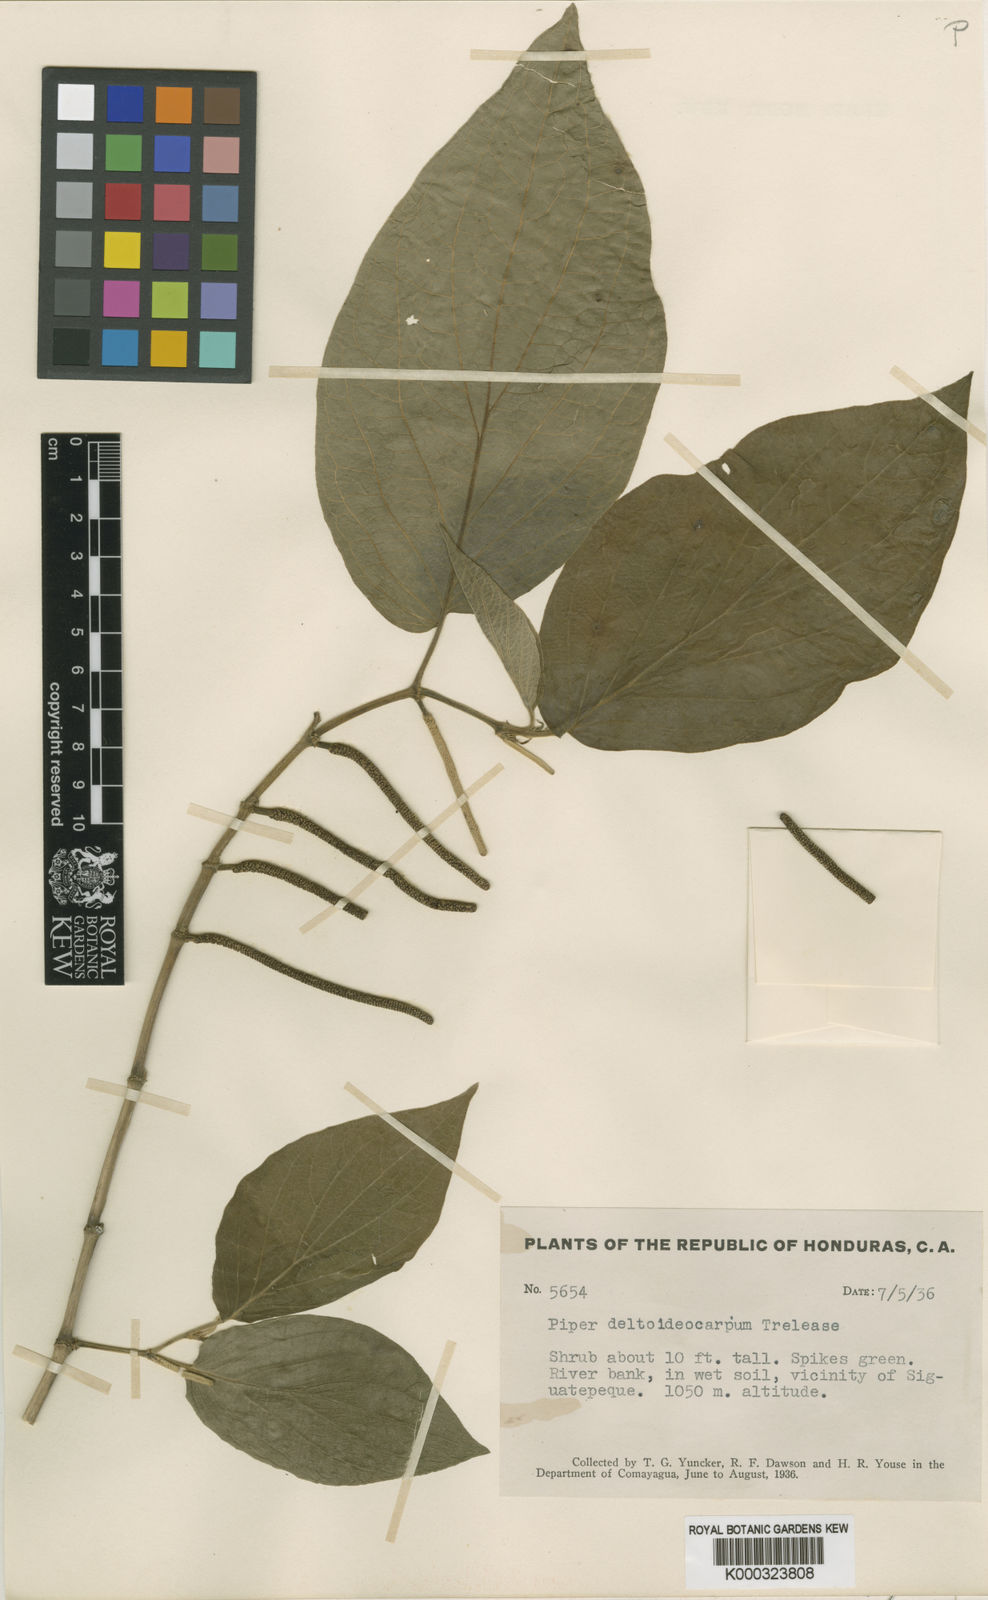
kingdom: Plantae
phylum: Tracheophyta
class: Magnoliopsida
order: Piperales
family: Piperaceae
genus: Piper
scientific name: Piper pseudofuligineum
